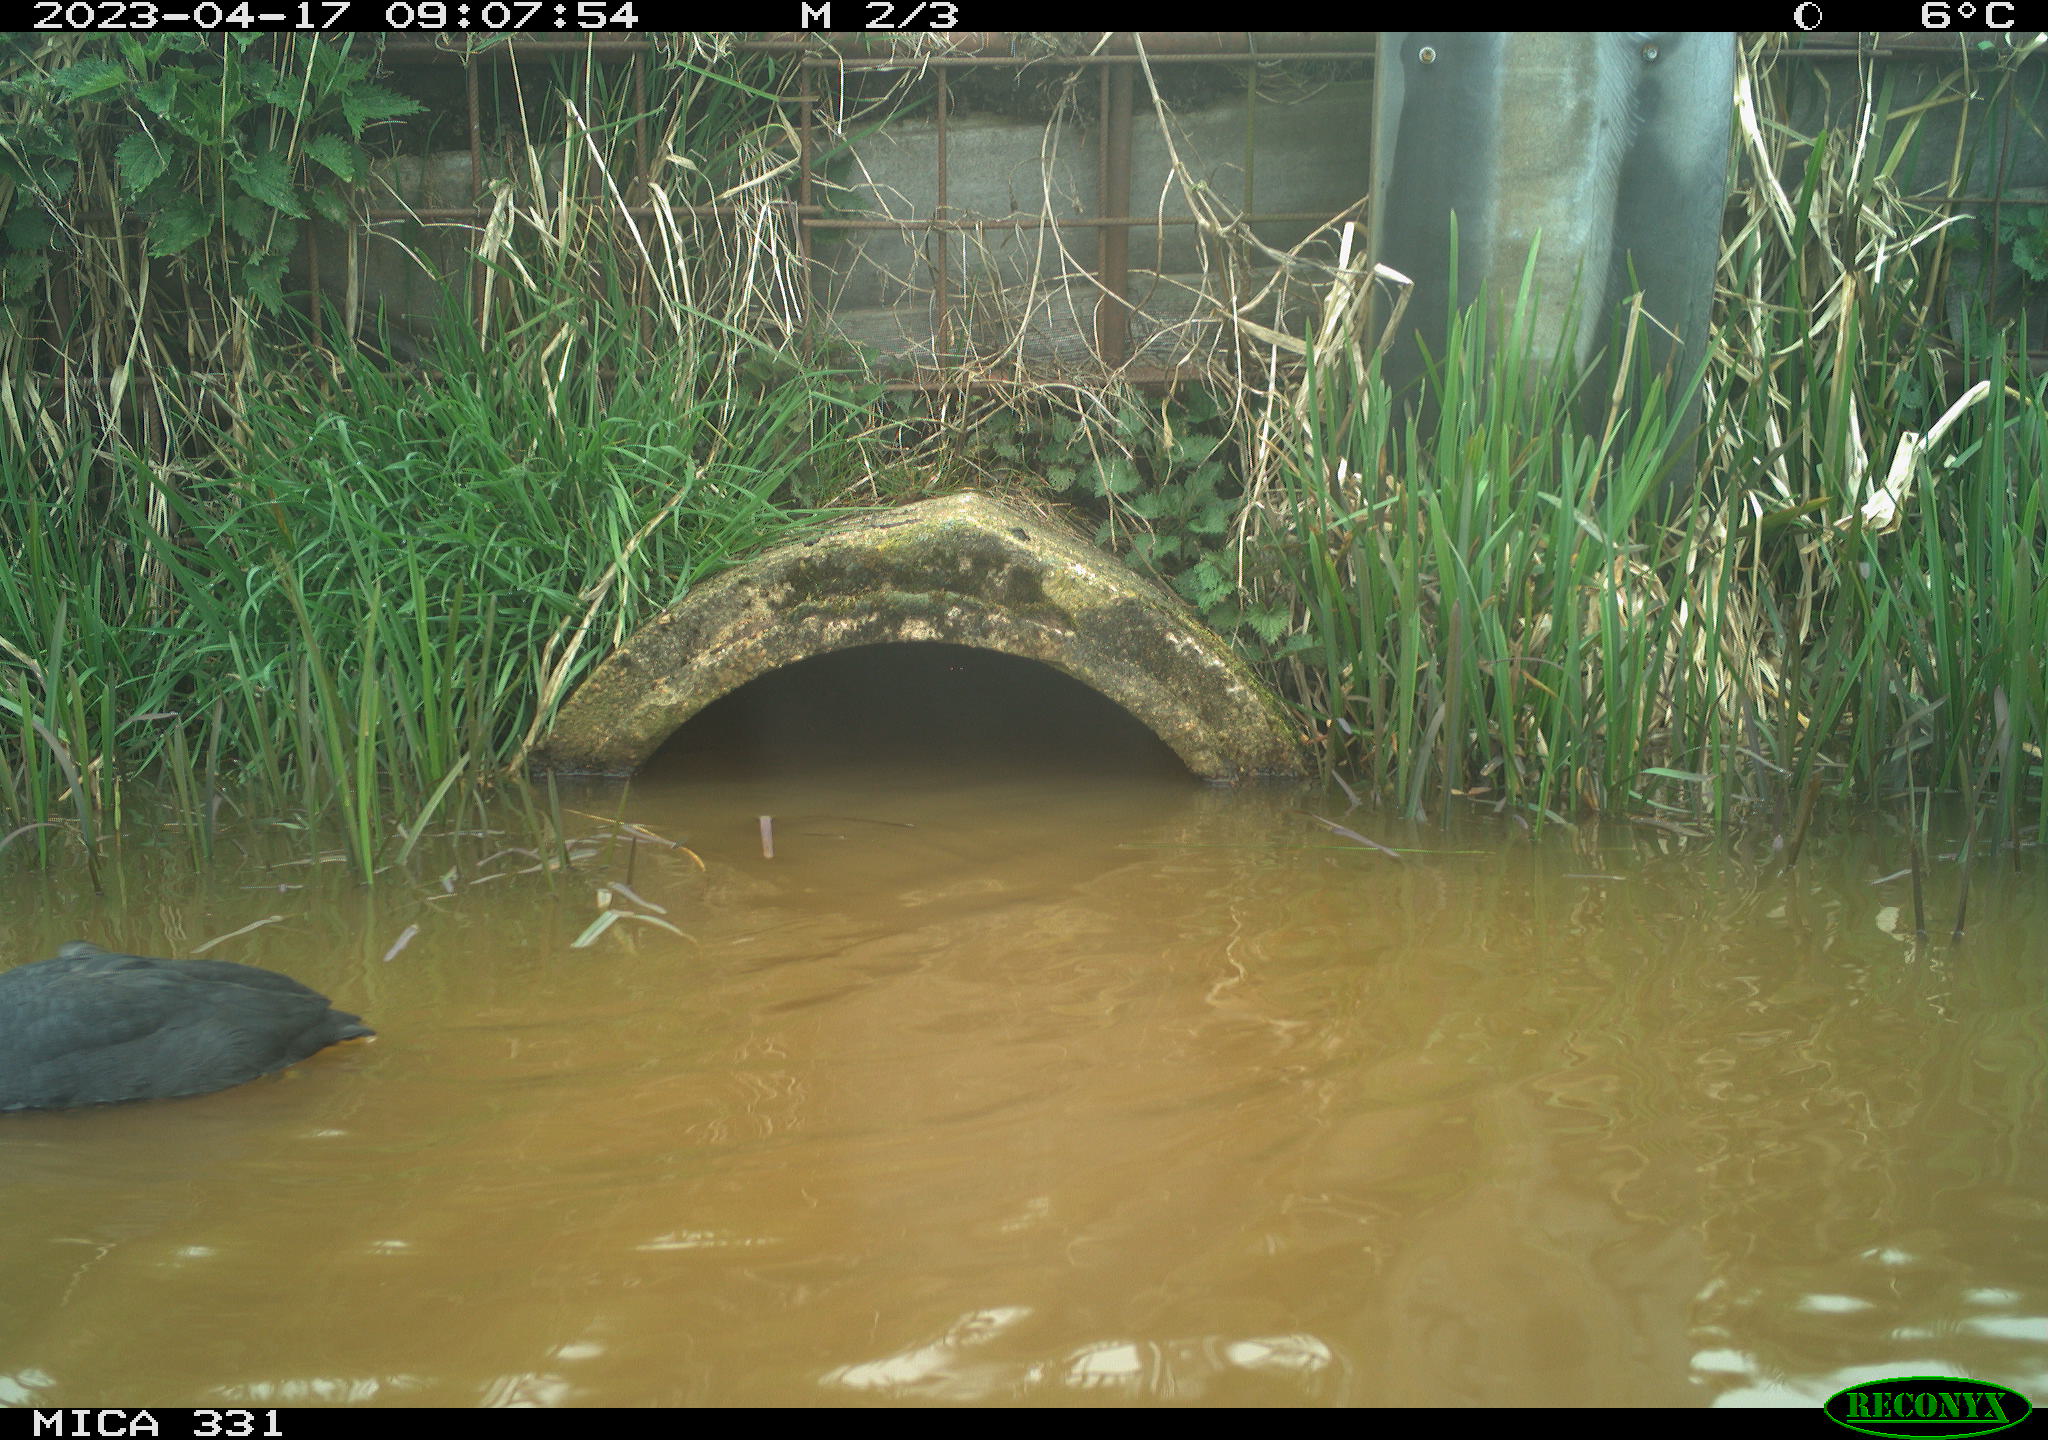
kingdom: Animalia
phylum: Chordata
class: Aves
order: Gruiformes
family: Rallidae
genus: Fulica
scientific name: Fulica atra
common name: Eurasian coot
